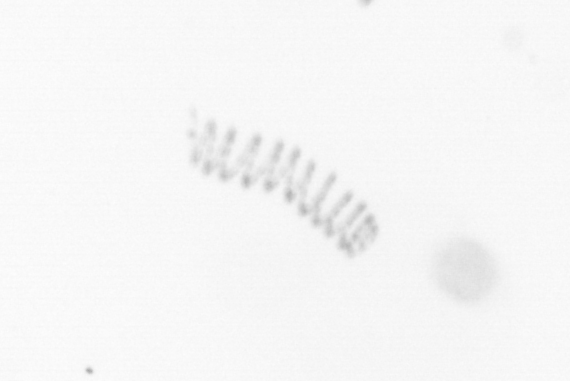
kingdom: Chromista
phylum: Ochrophyta
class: Bacillariophyceae
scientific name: Bacillariophyceae
